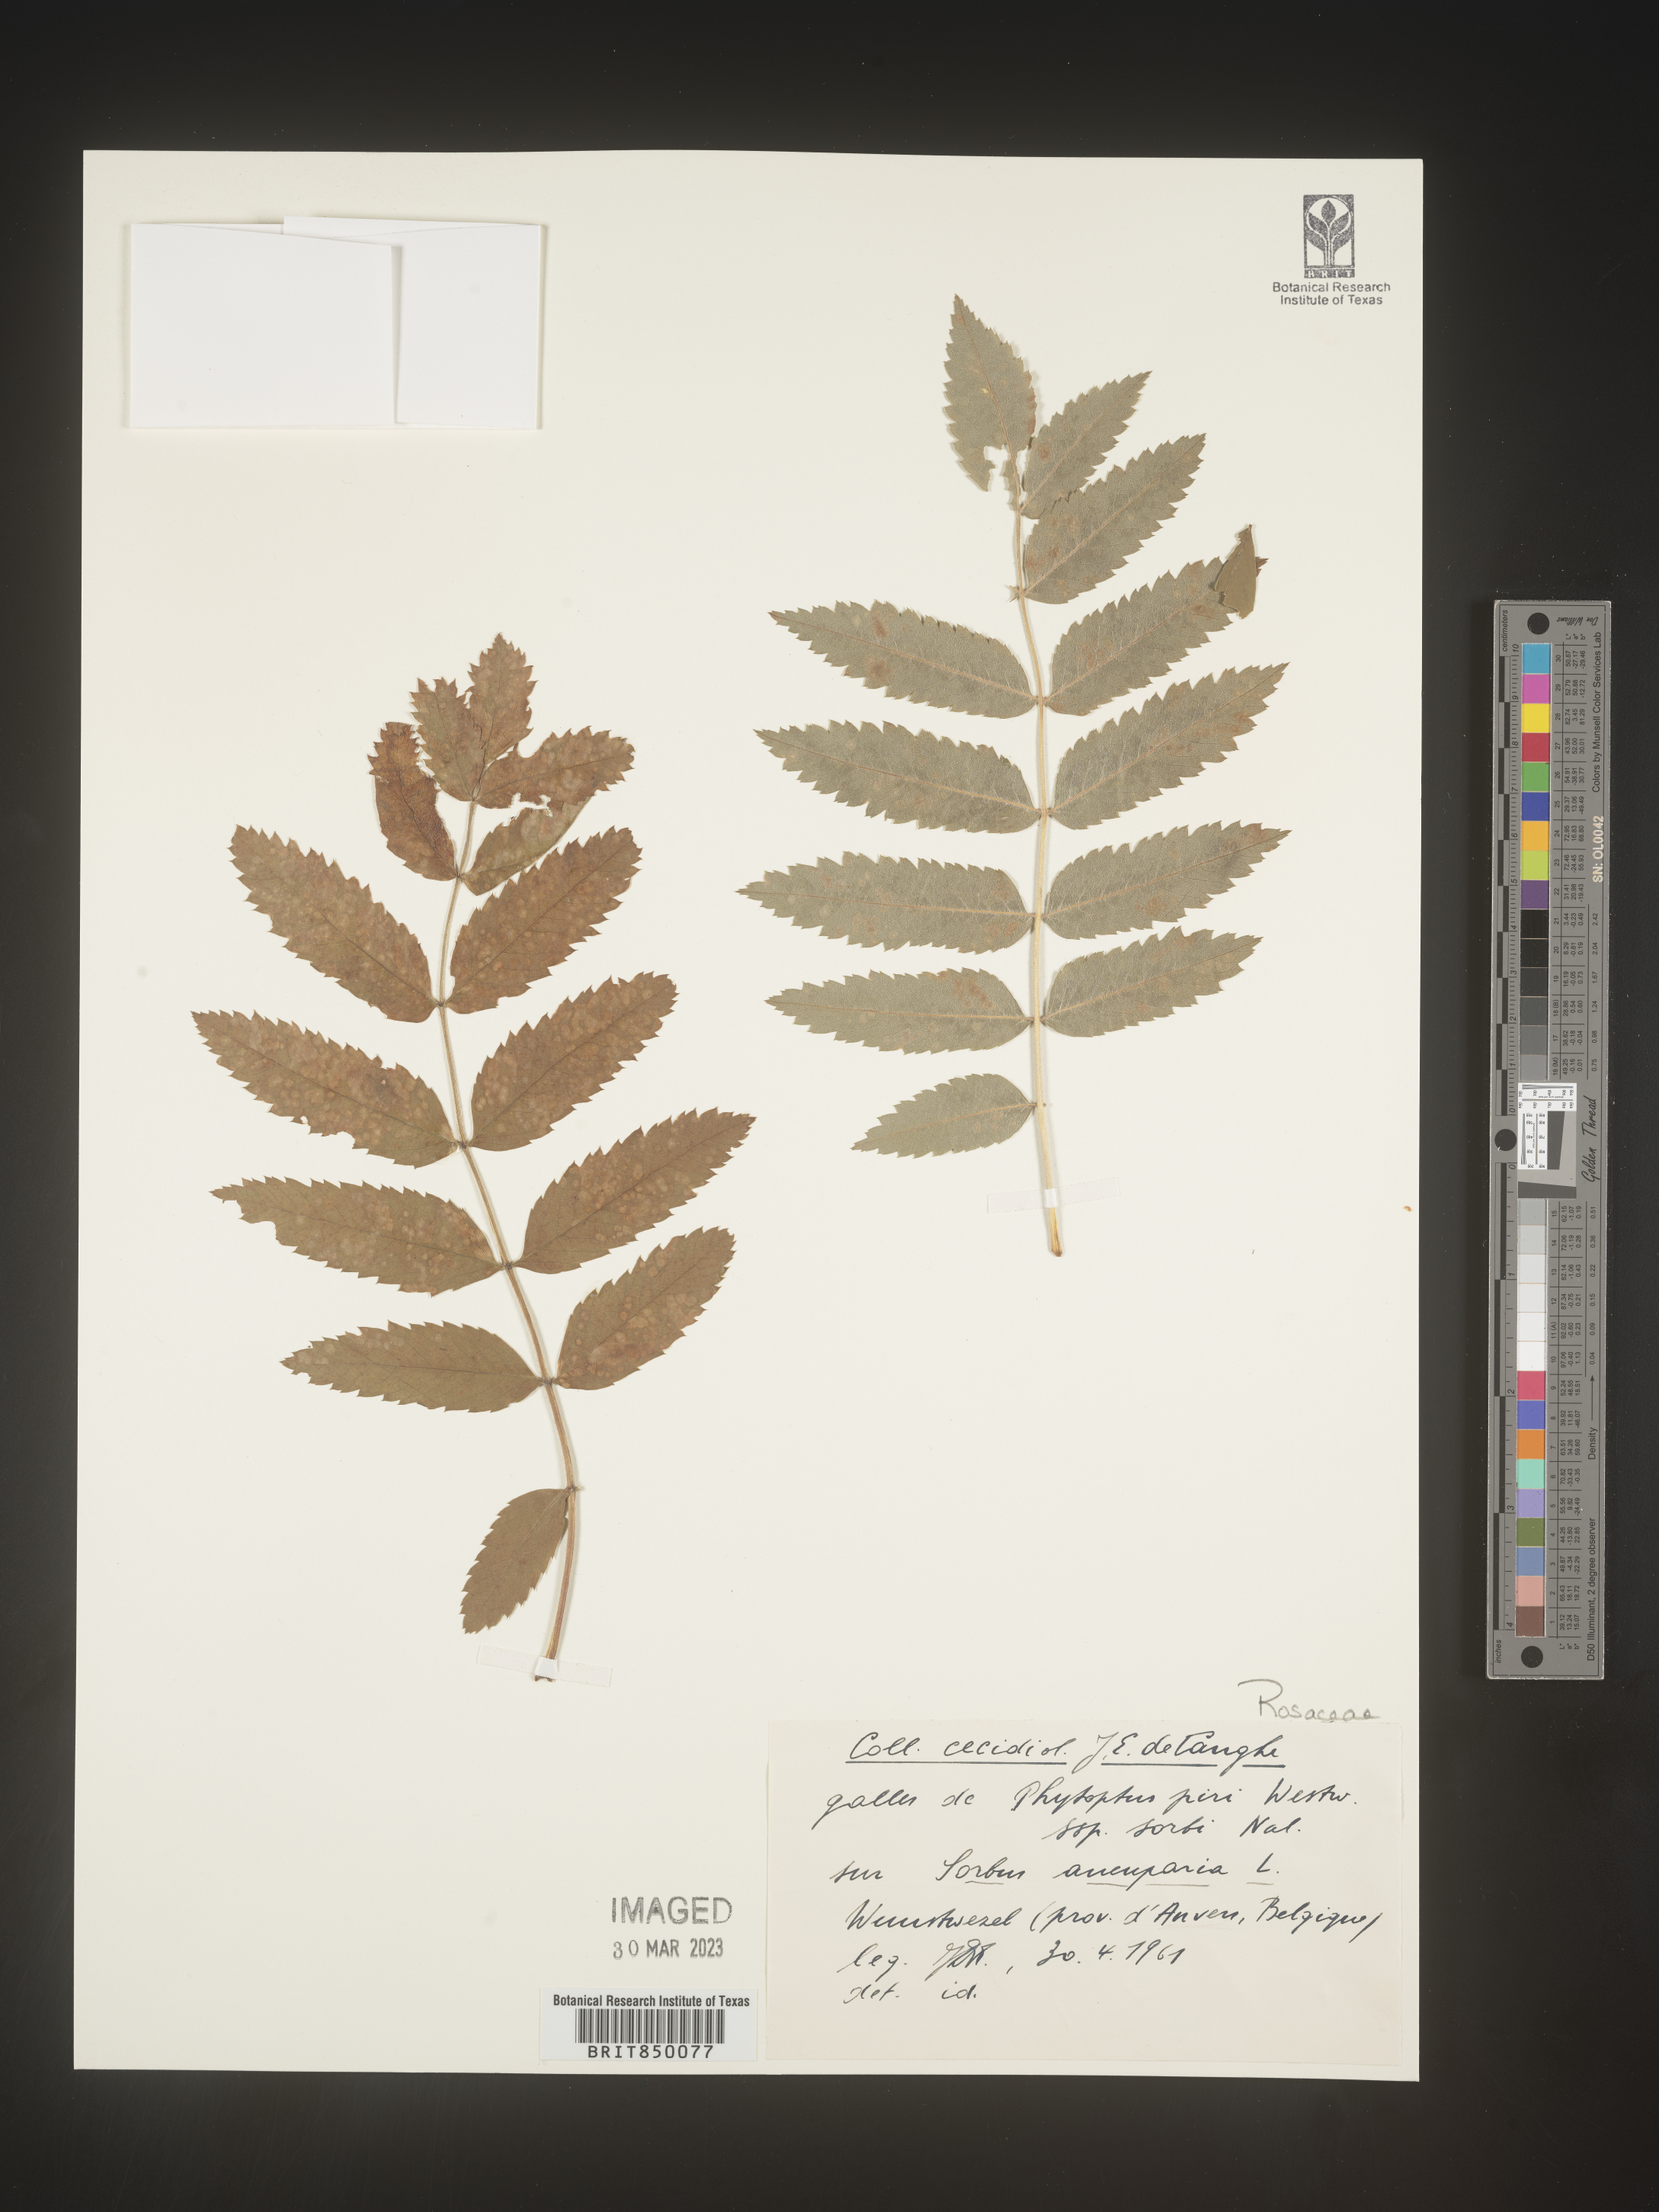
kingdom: Plantae
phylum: Tracheophyta
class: Magnoliopsida
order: Rosales
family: Rosaceae
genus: Sorbus
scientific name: Sorbus
